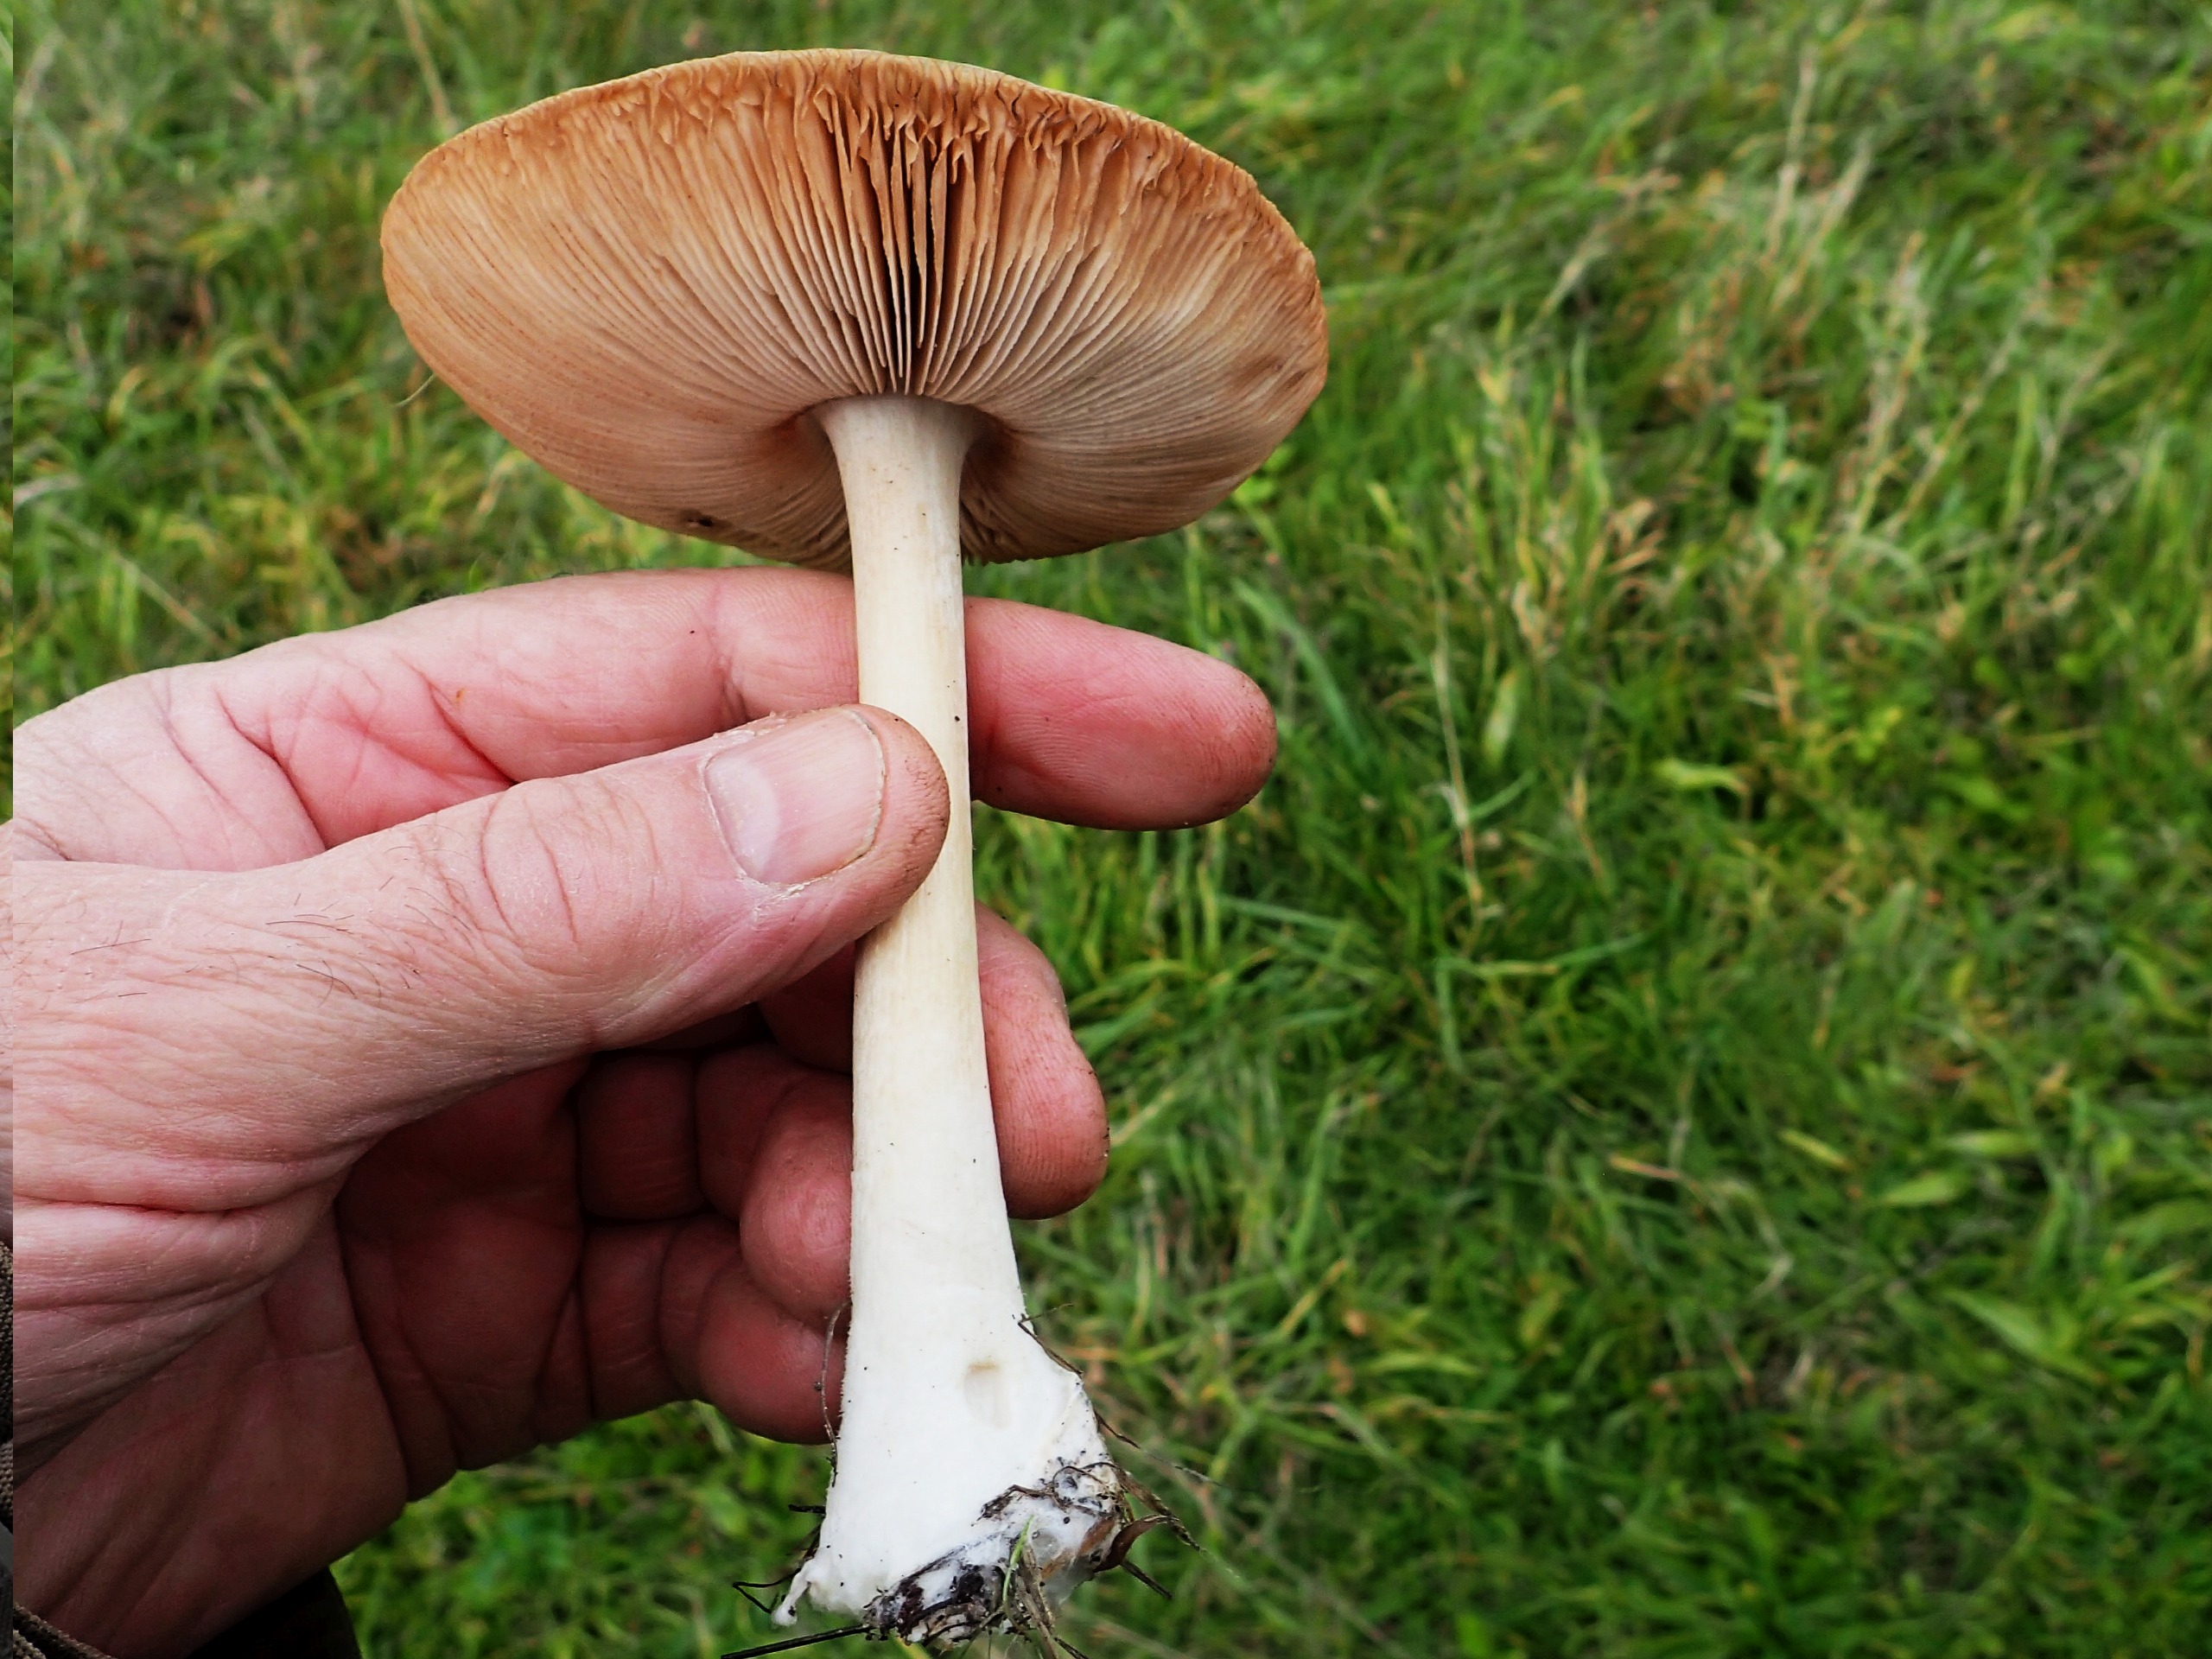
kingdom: Fungi
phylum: Basidiomycota
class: Agaricomycetes
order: Agaricales
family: Pluteaceae
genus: Volvopluteus
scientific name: Volvopluteus gloiocephalus
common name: Høj posesvamp
